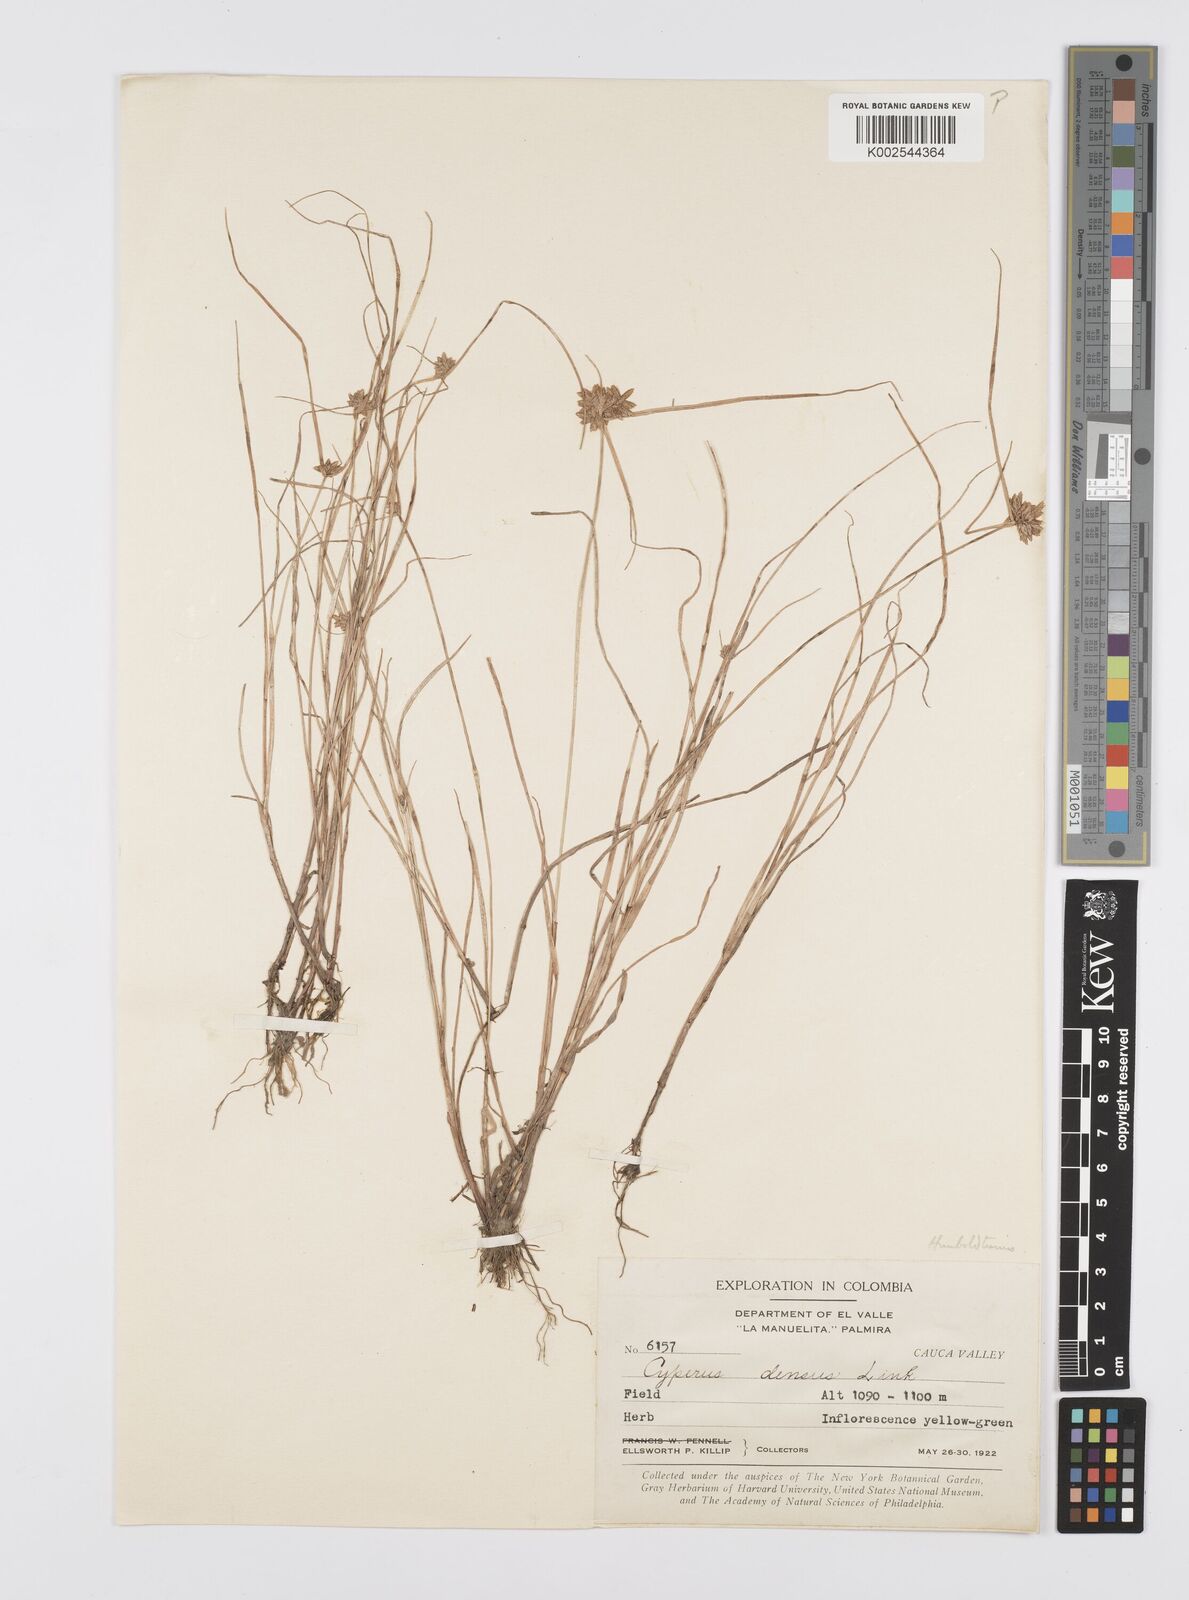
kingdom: Plantae
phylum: Tracheophyta
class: Liliopsida
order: Poales
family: Cyperaceae
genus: Cyperus
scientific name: Cyperus
